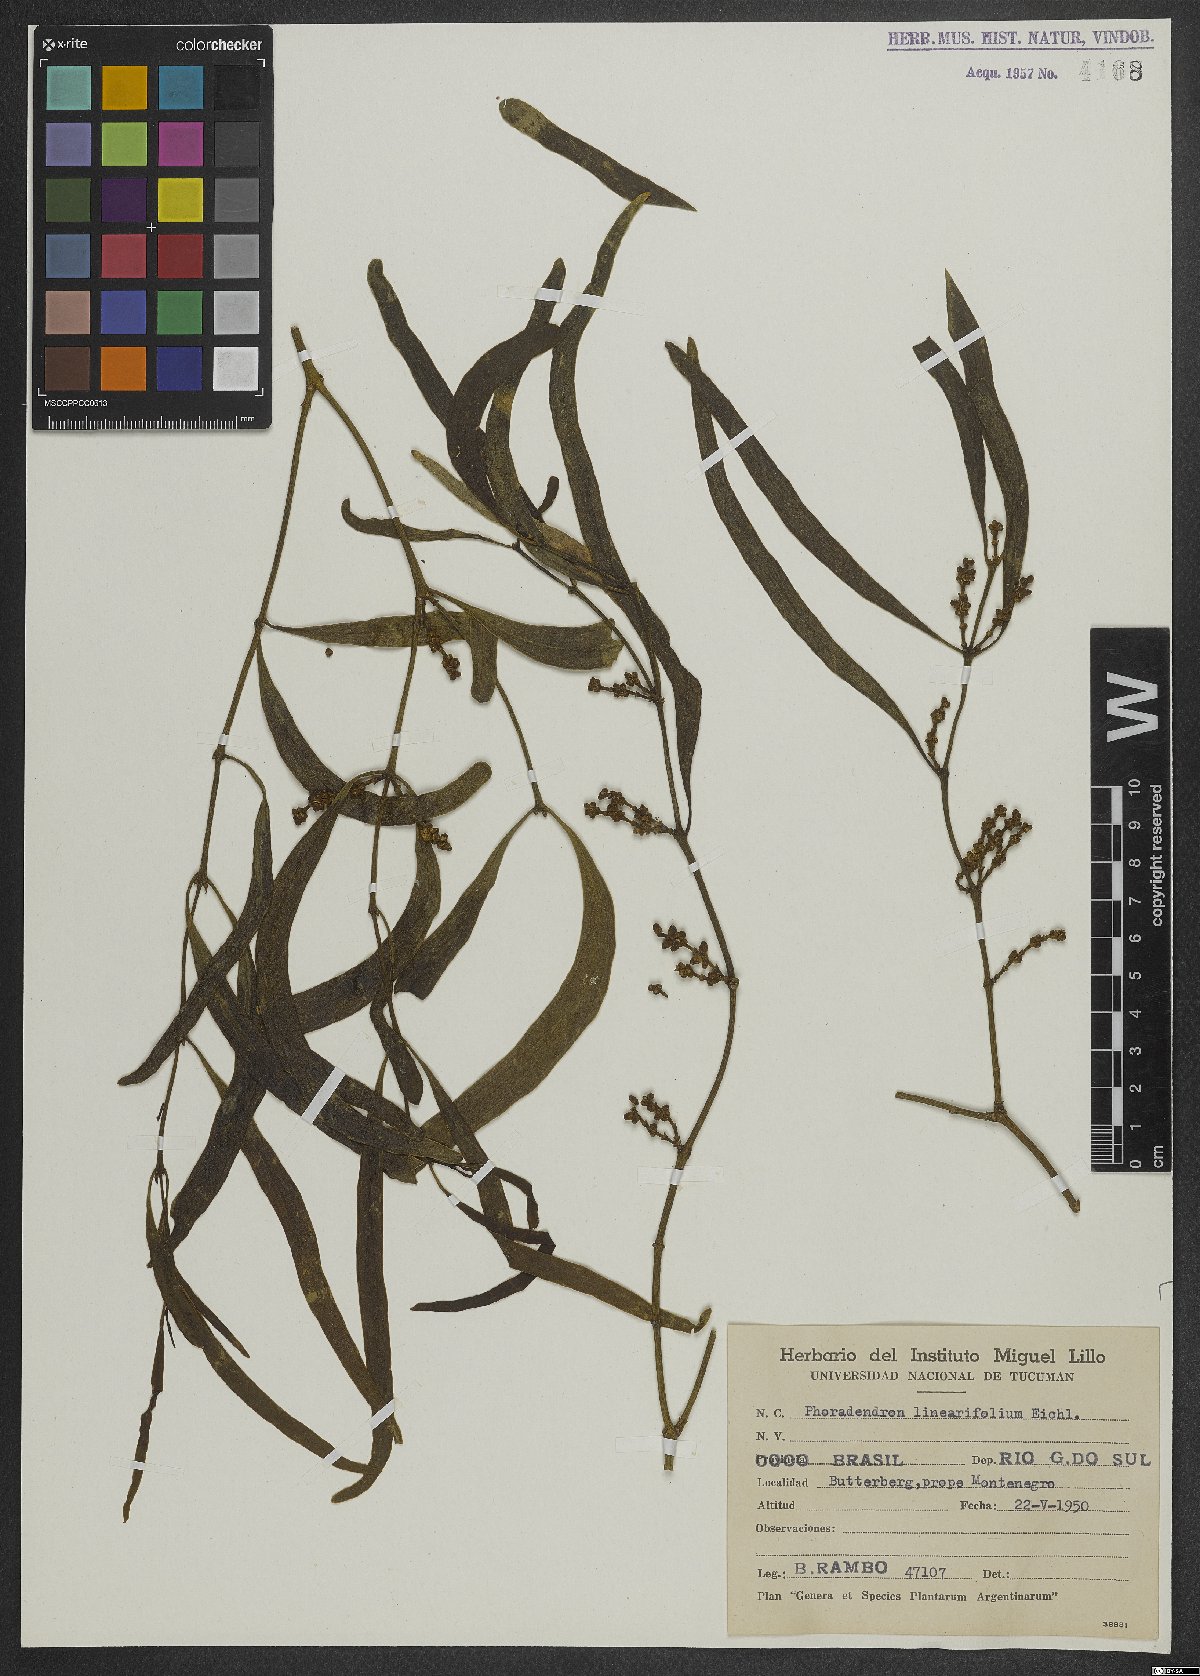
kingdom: Plantae
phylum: Tracheophyta
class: Magnoliopsida
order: Santalales
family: Viscaceae
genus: Phoradendron
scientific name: Phoradendron linearifolium
